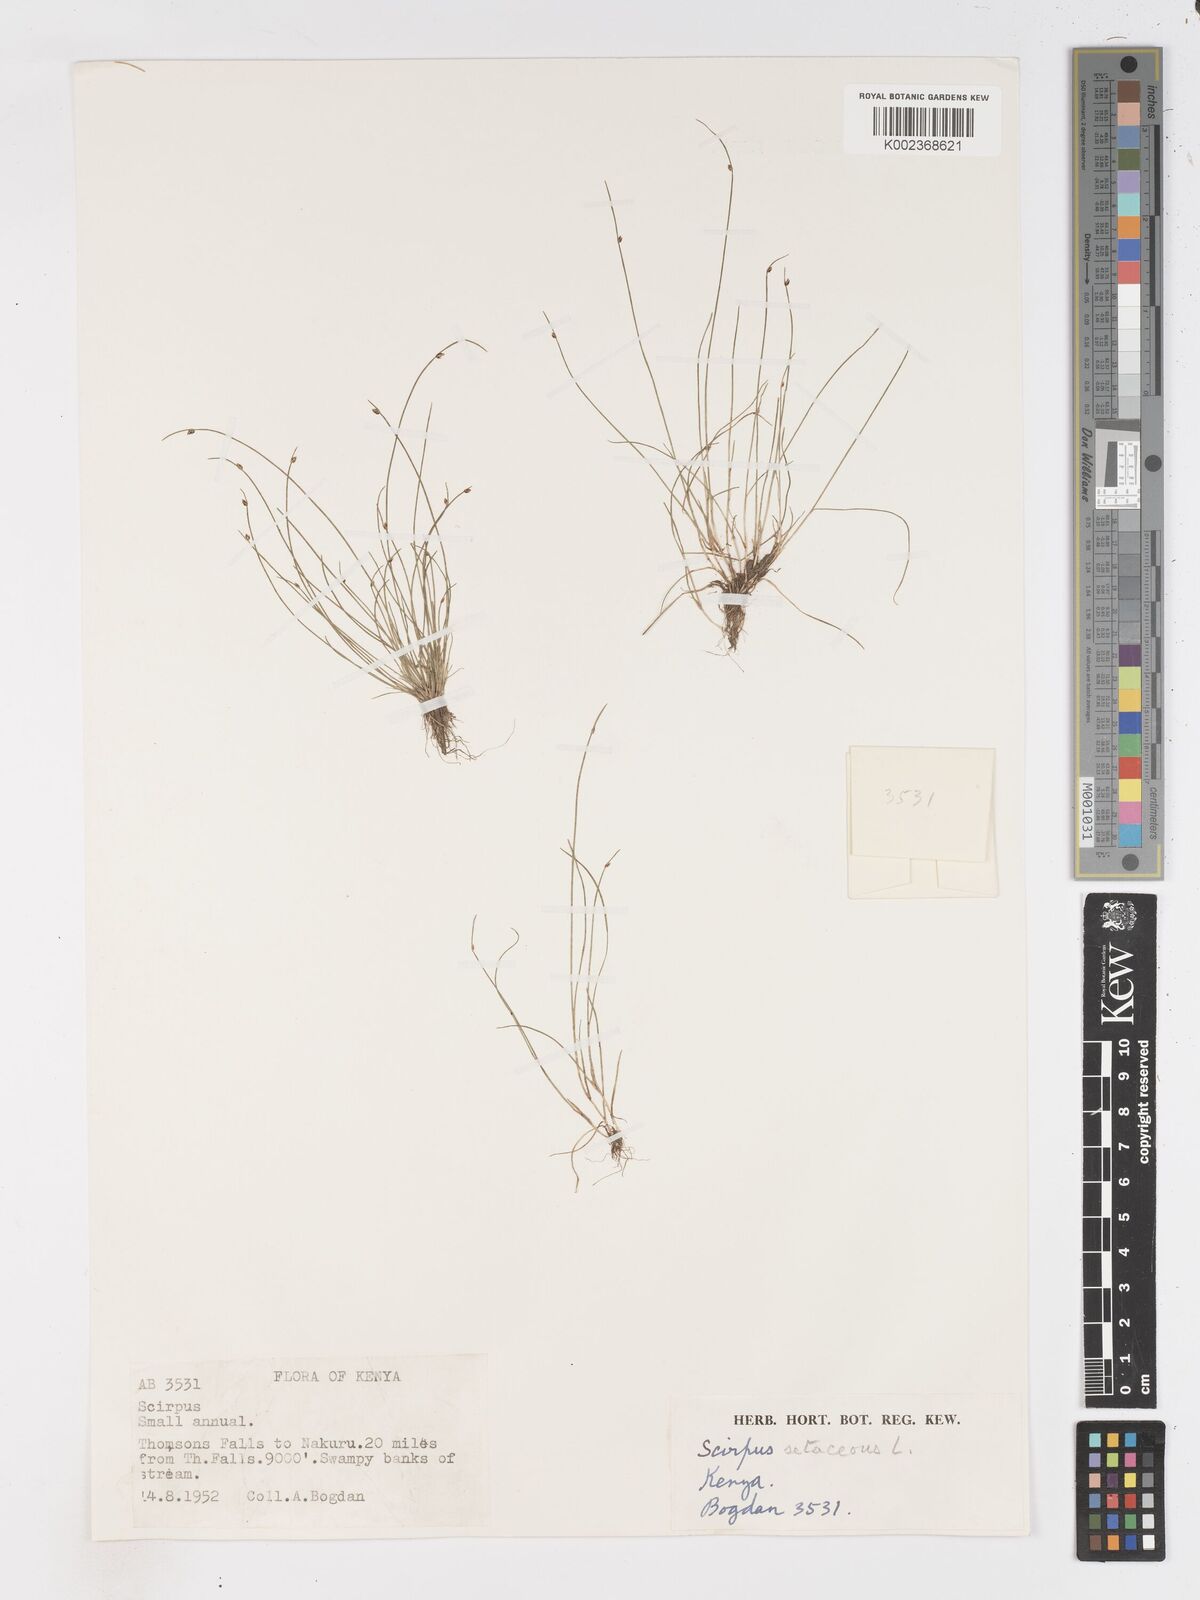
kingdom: Plantae
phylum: Tracheophyta
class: Liliopsida
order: Poales
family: Cyperaceae
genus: Isolepis
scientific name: Isolepis setacea
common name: Bristle club-rush
